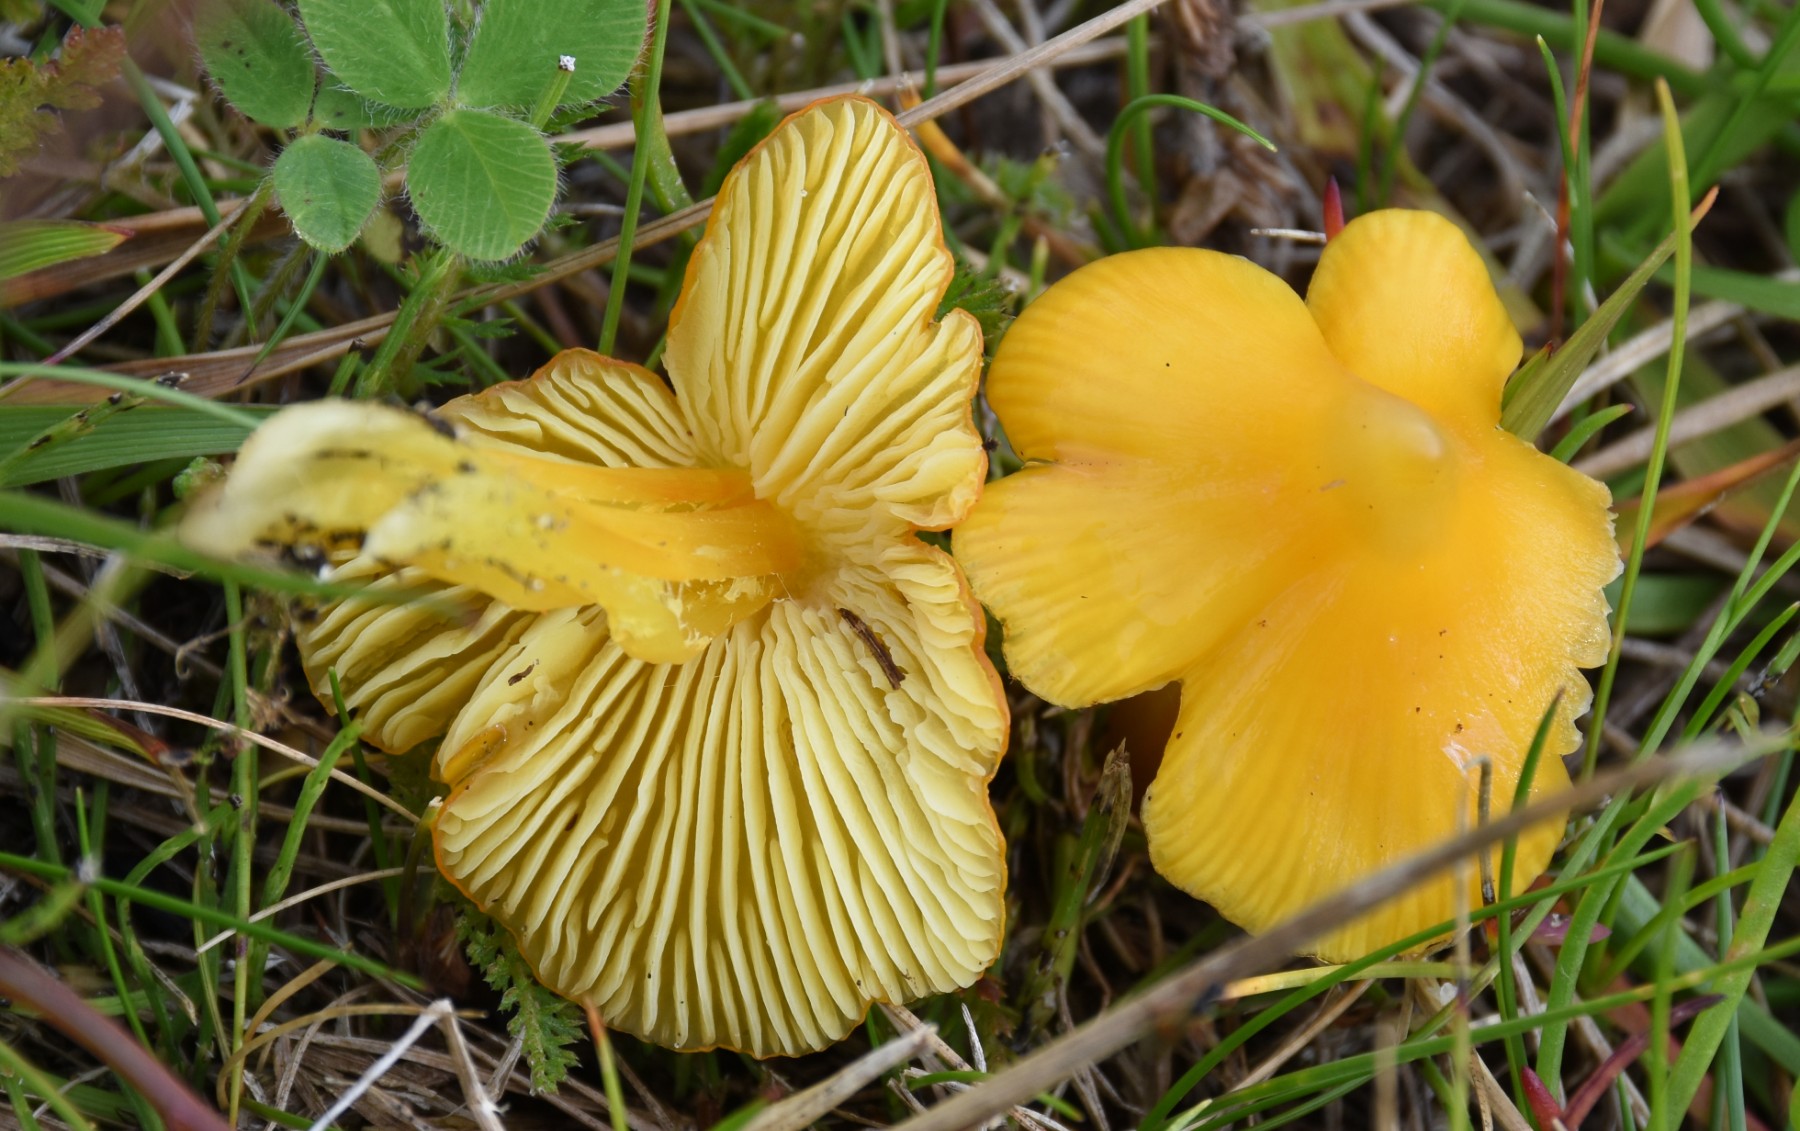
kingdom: Fungi
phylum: Basidiomycota
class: Agaricomycetes
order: Agaricales
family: Hygrophoraceae
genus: Hygrocybe
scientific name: Hygrocybe
